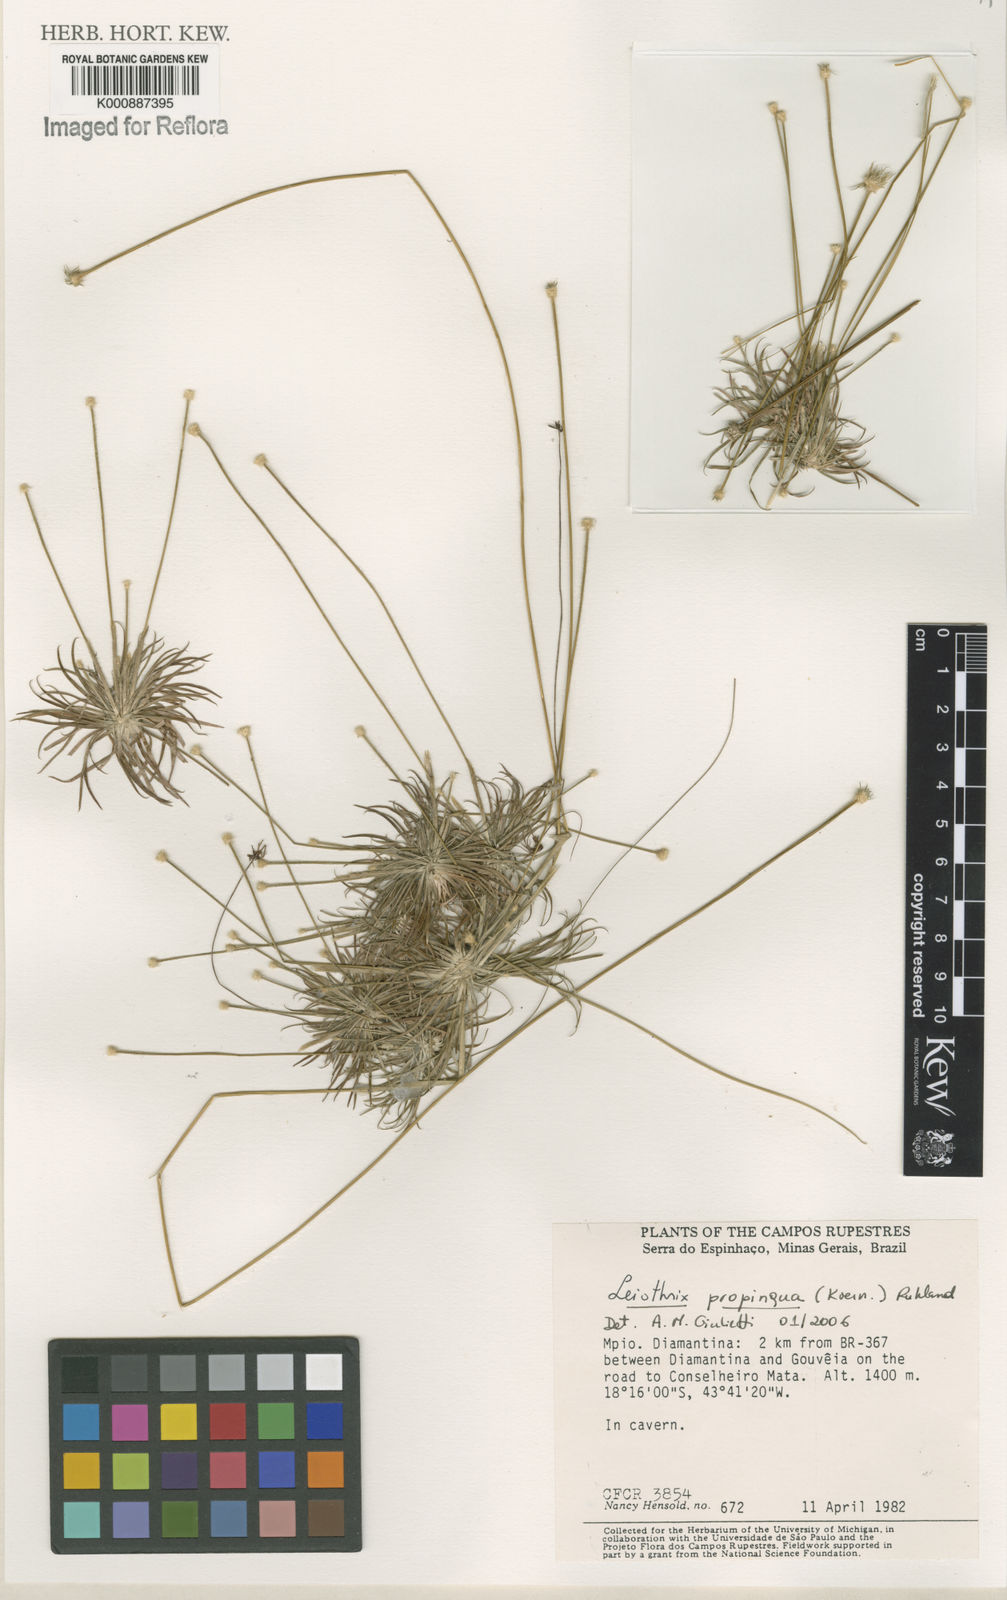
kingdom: Plantae
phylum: Tracheophyta
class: Liliopsida
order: Poales
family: Eriocaulaceae
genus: Leiothrix
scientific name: Leiothrix propinqua
